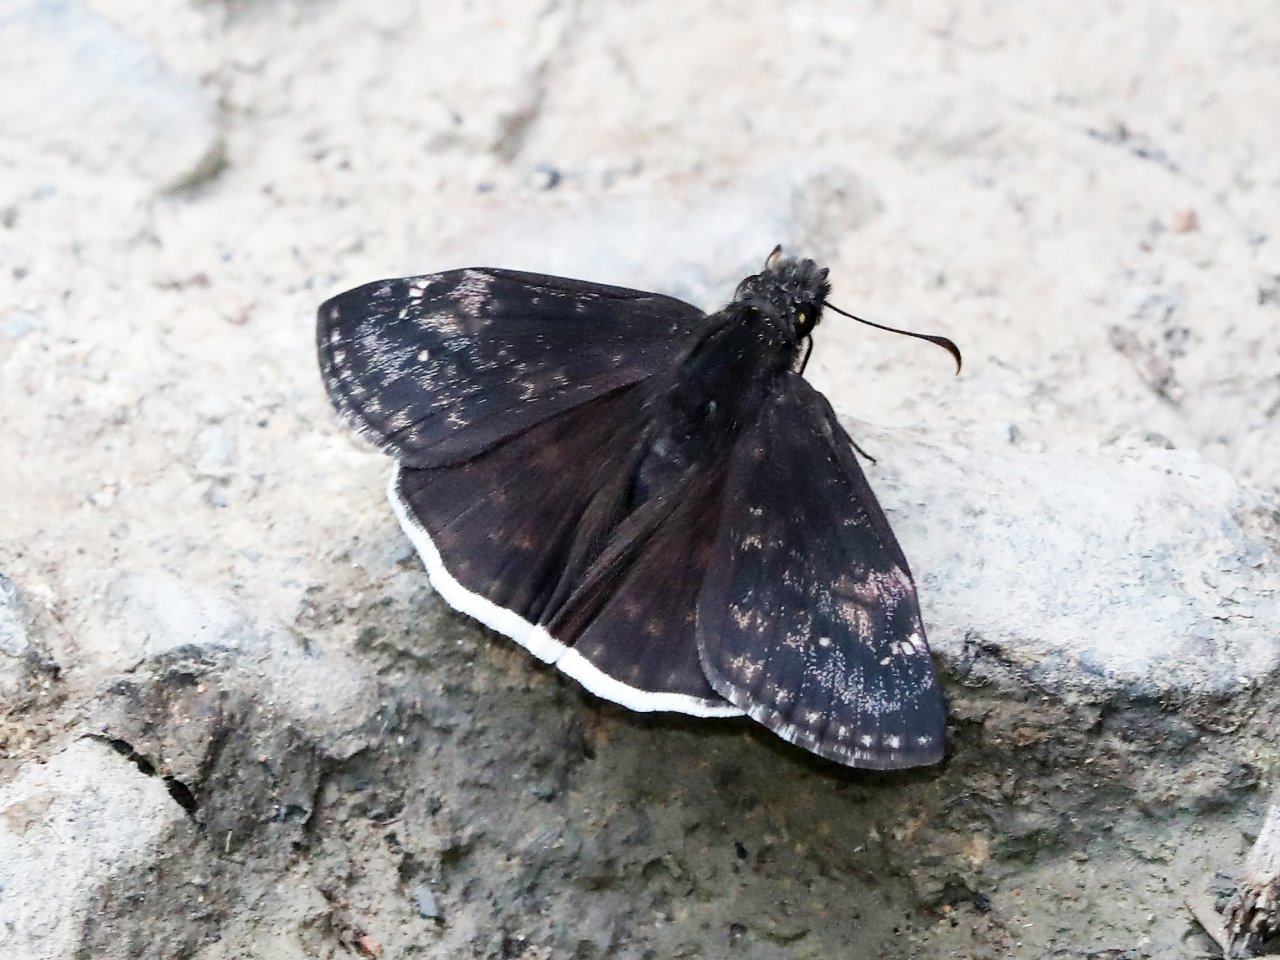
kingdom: Animalia
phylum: Arthropoda
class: Insecta
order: Lepidoptera
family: Hesperiidae
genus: Erynnis
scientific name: Erynnis funeralis
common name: Funereal Duskywing
